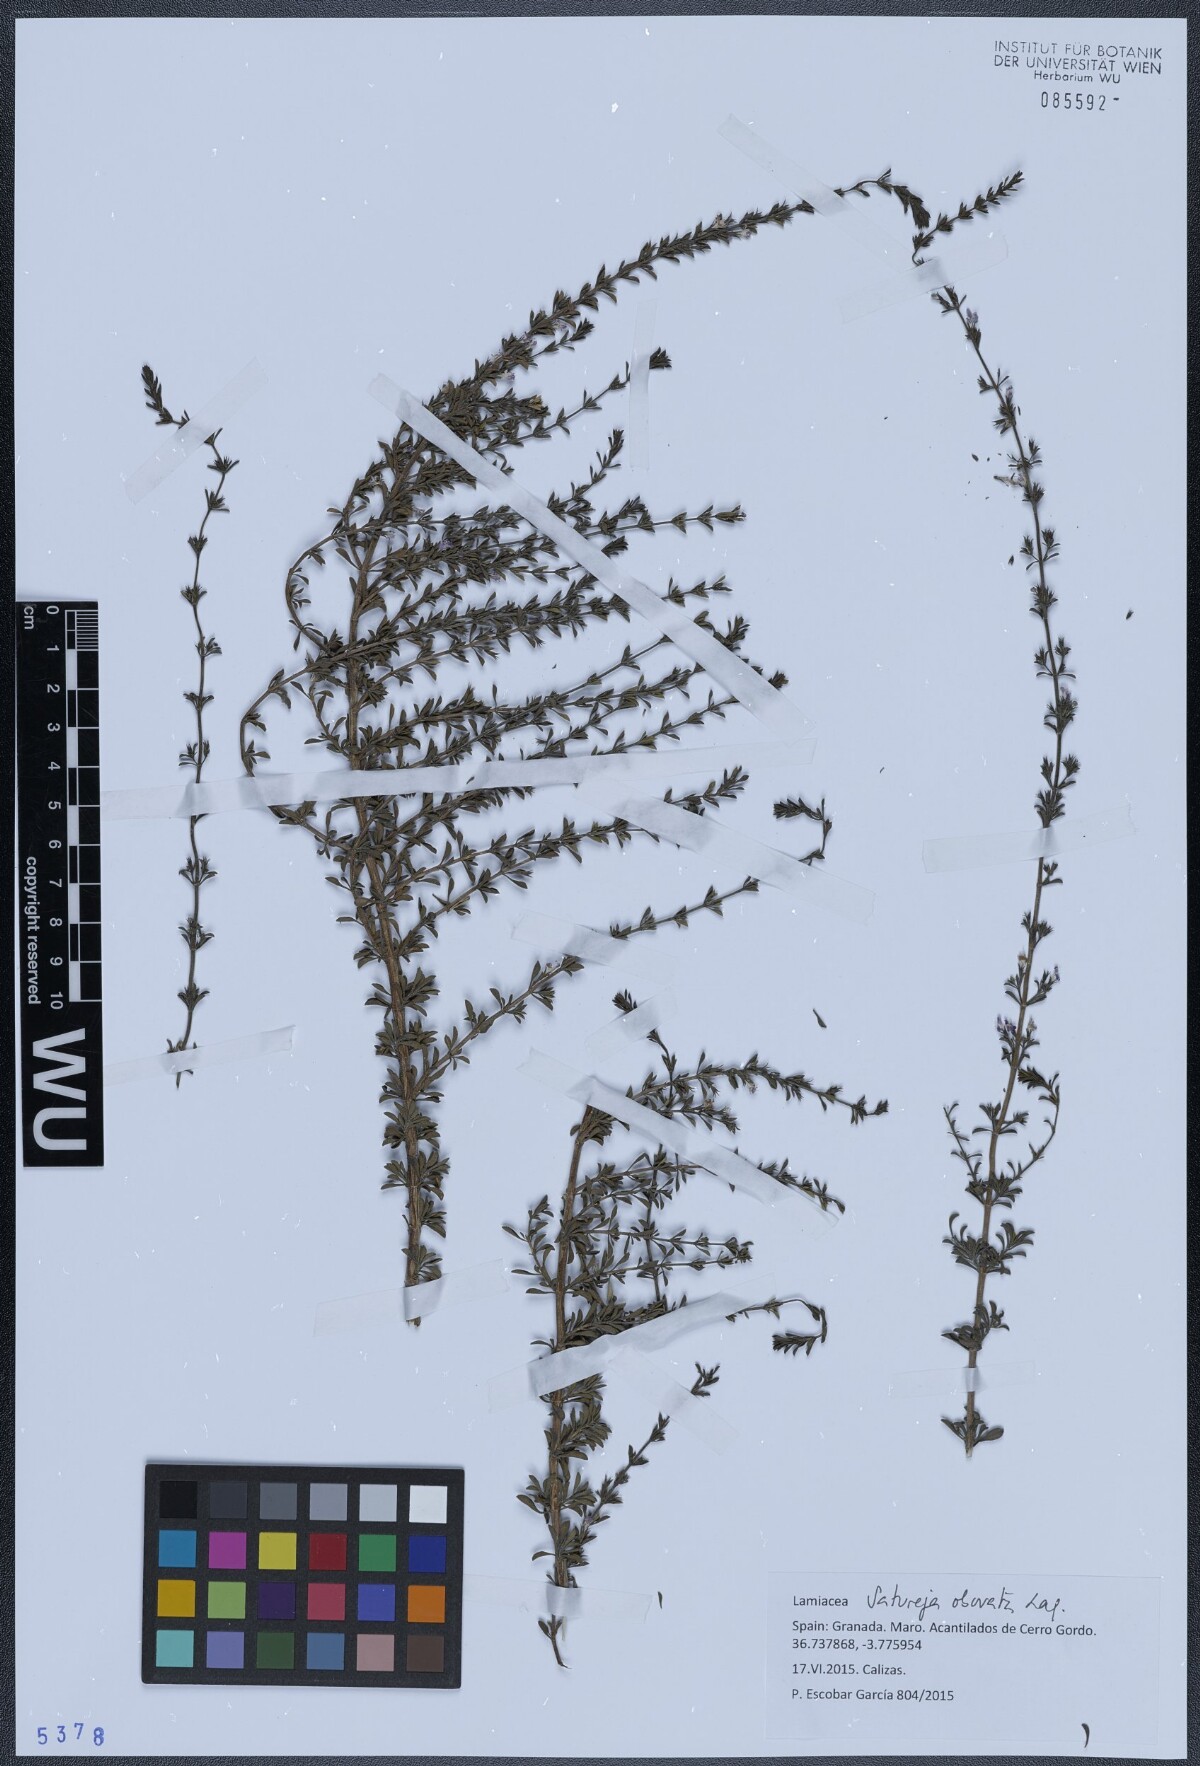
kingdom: Plantae
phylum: Tracheophyta
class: Magnoliopsida
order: Lamiales
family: Lamiaceae
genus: Satureja
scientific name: Satureja cuneifolia
